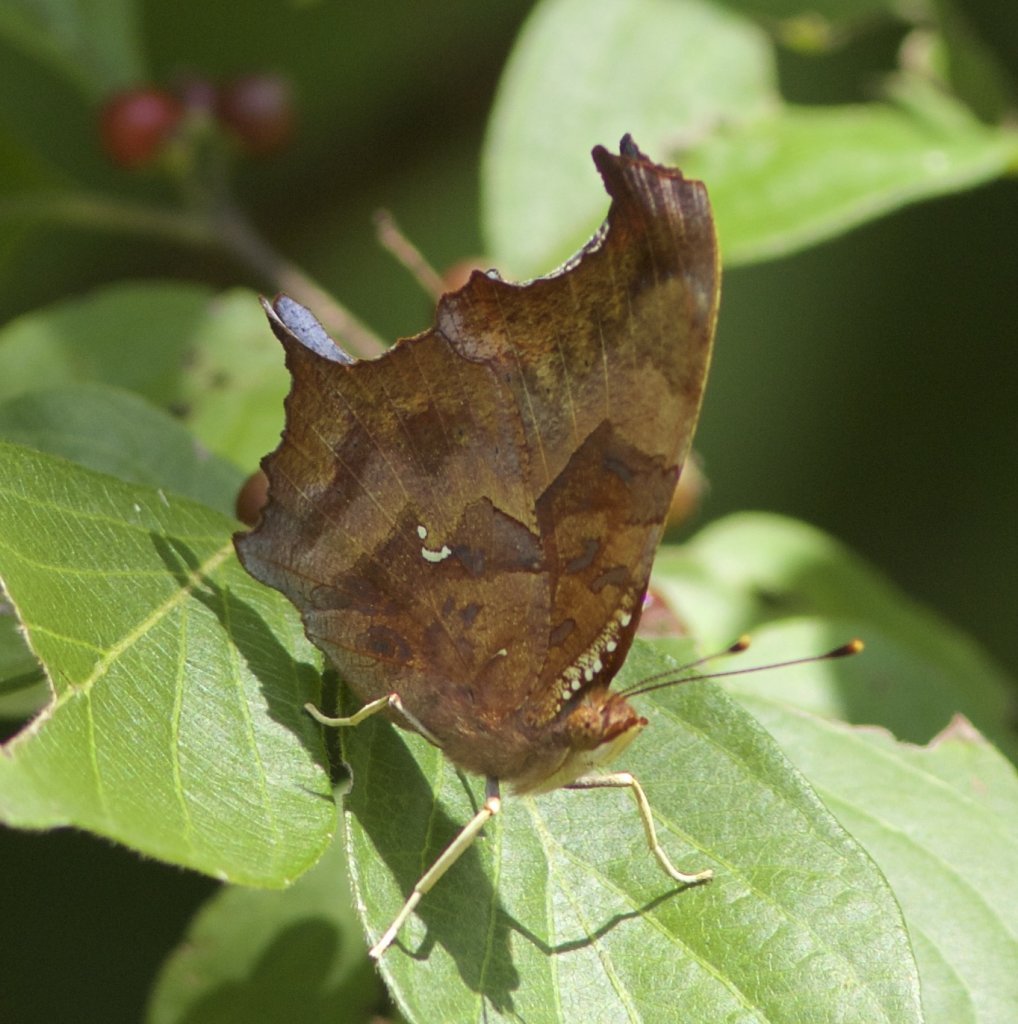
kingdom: Animalia
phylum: Arthropoda
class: Insecta
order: Lepidoptera
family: Nymphalidae
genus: Polygonia
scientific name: Polygonia interrogationis
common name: Question Mark
